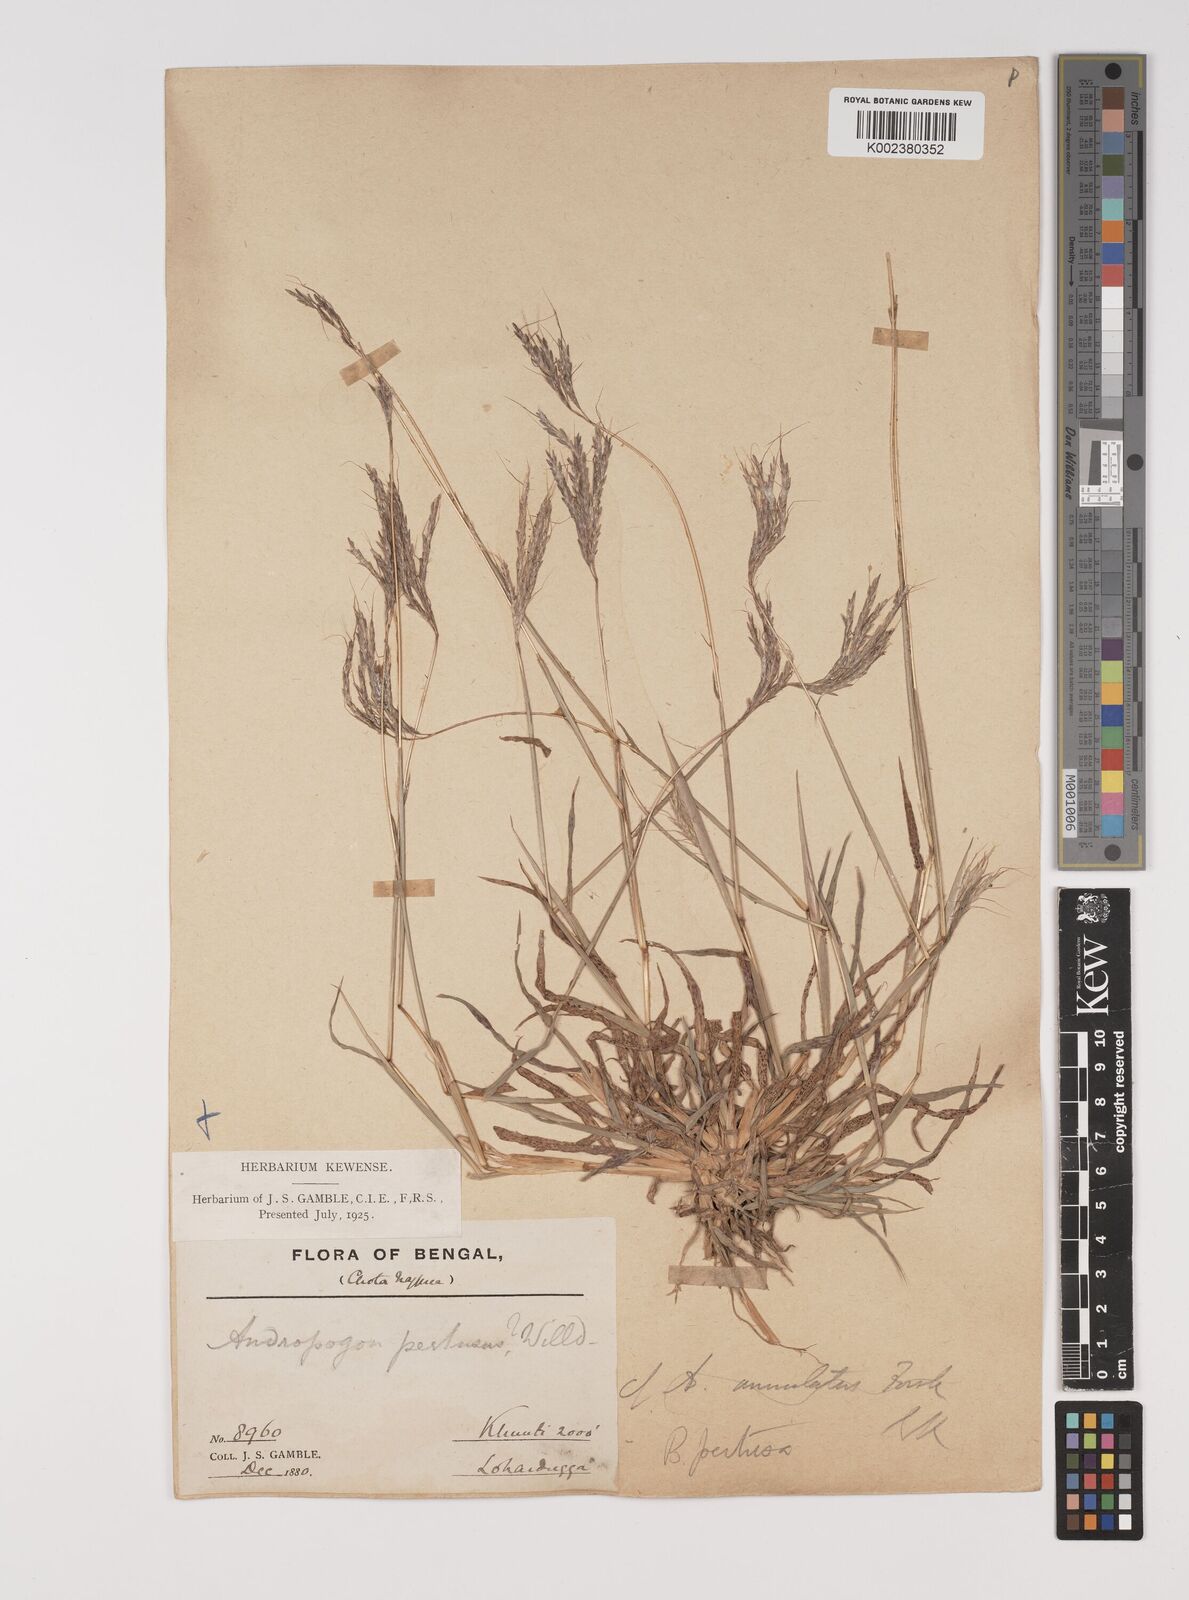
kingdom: Plantae
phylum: Tracheophyta
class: Liliopsida
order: Poales
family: Poaceae
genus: Bothriochloa
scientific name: Bothriochloa pertusa
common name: Pitted beardgrass
